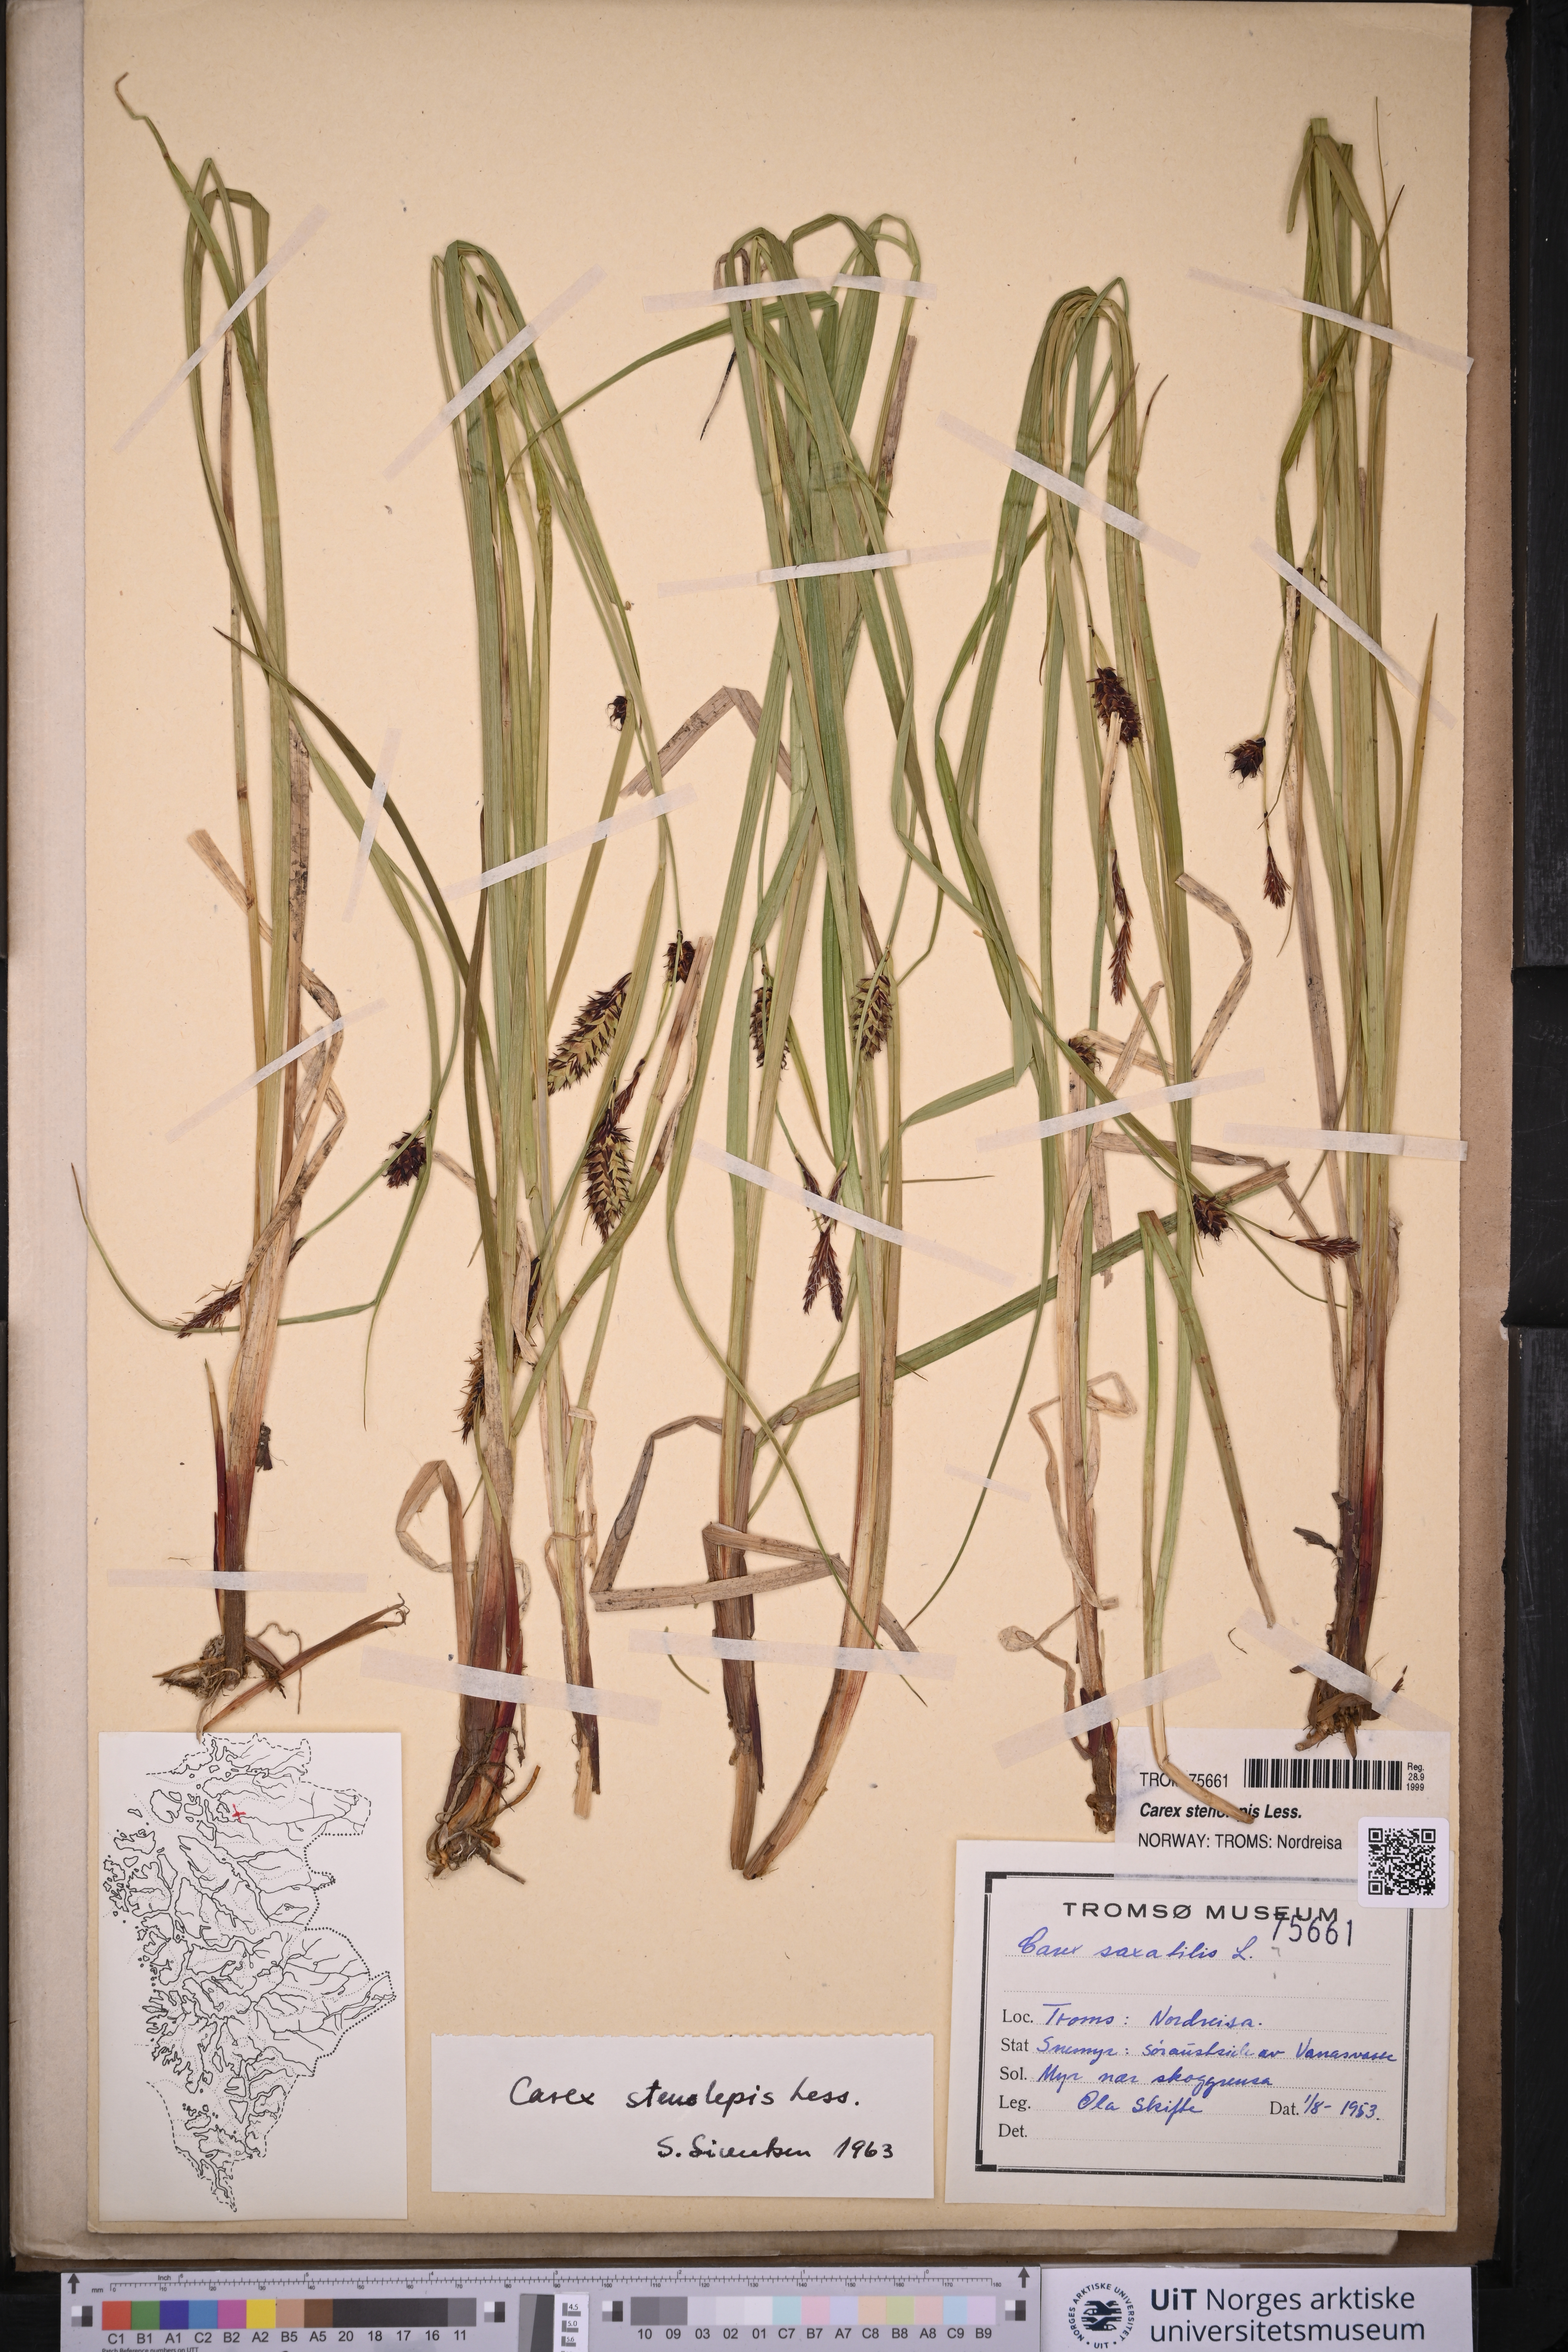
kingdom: Plantae
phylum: Tracheophyta
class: Liliopsida
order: Poales
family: Cyperaceae
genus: Carex
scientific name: Carex grahamii
